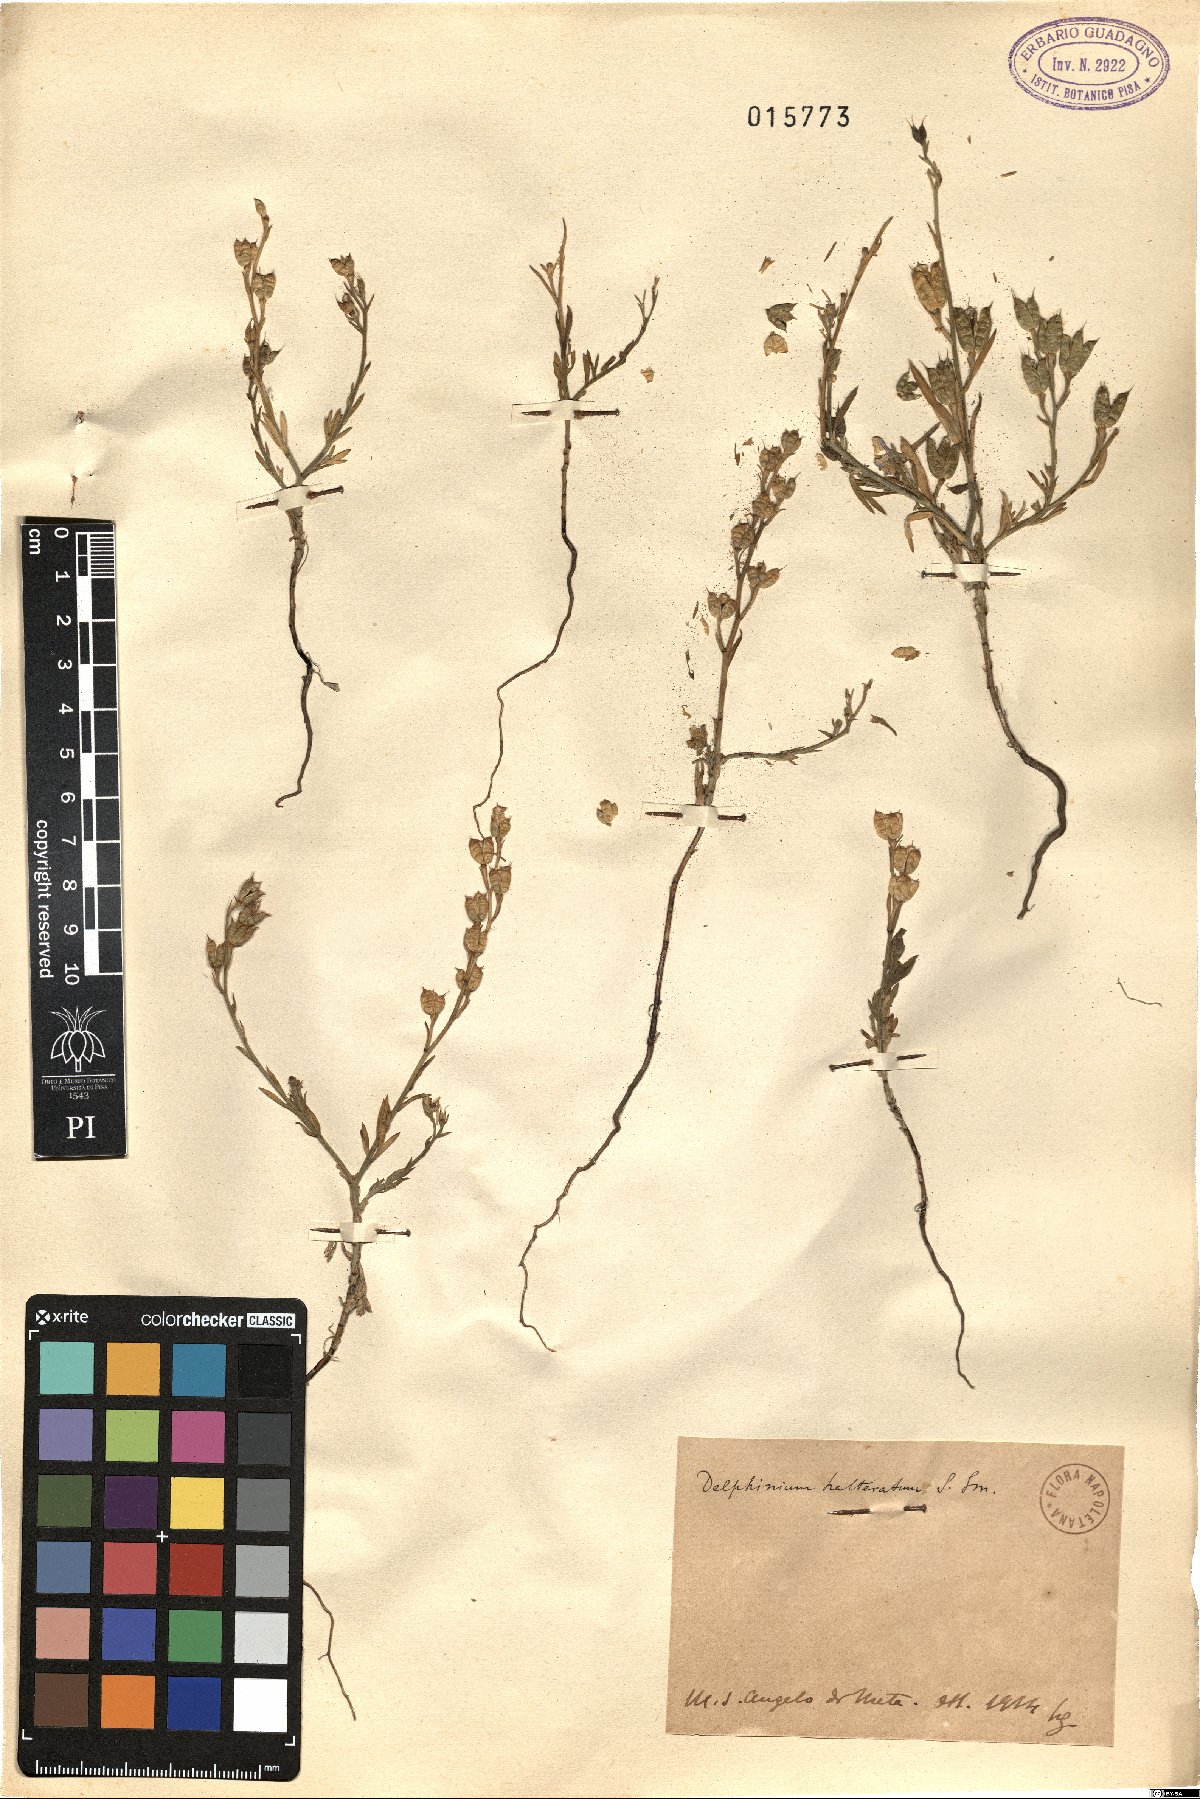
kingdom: Plantae
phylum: Tracheophyta
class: Magnoliopsida
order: Ranunculales
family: Ranunculaceae
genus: Delphinium
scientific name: Delphinium halteratum
